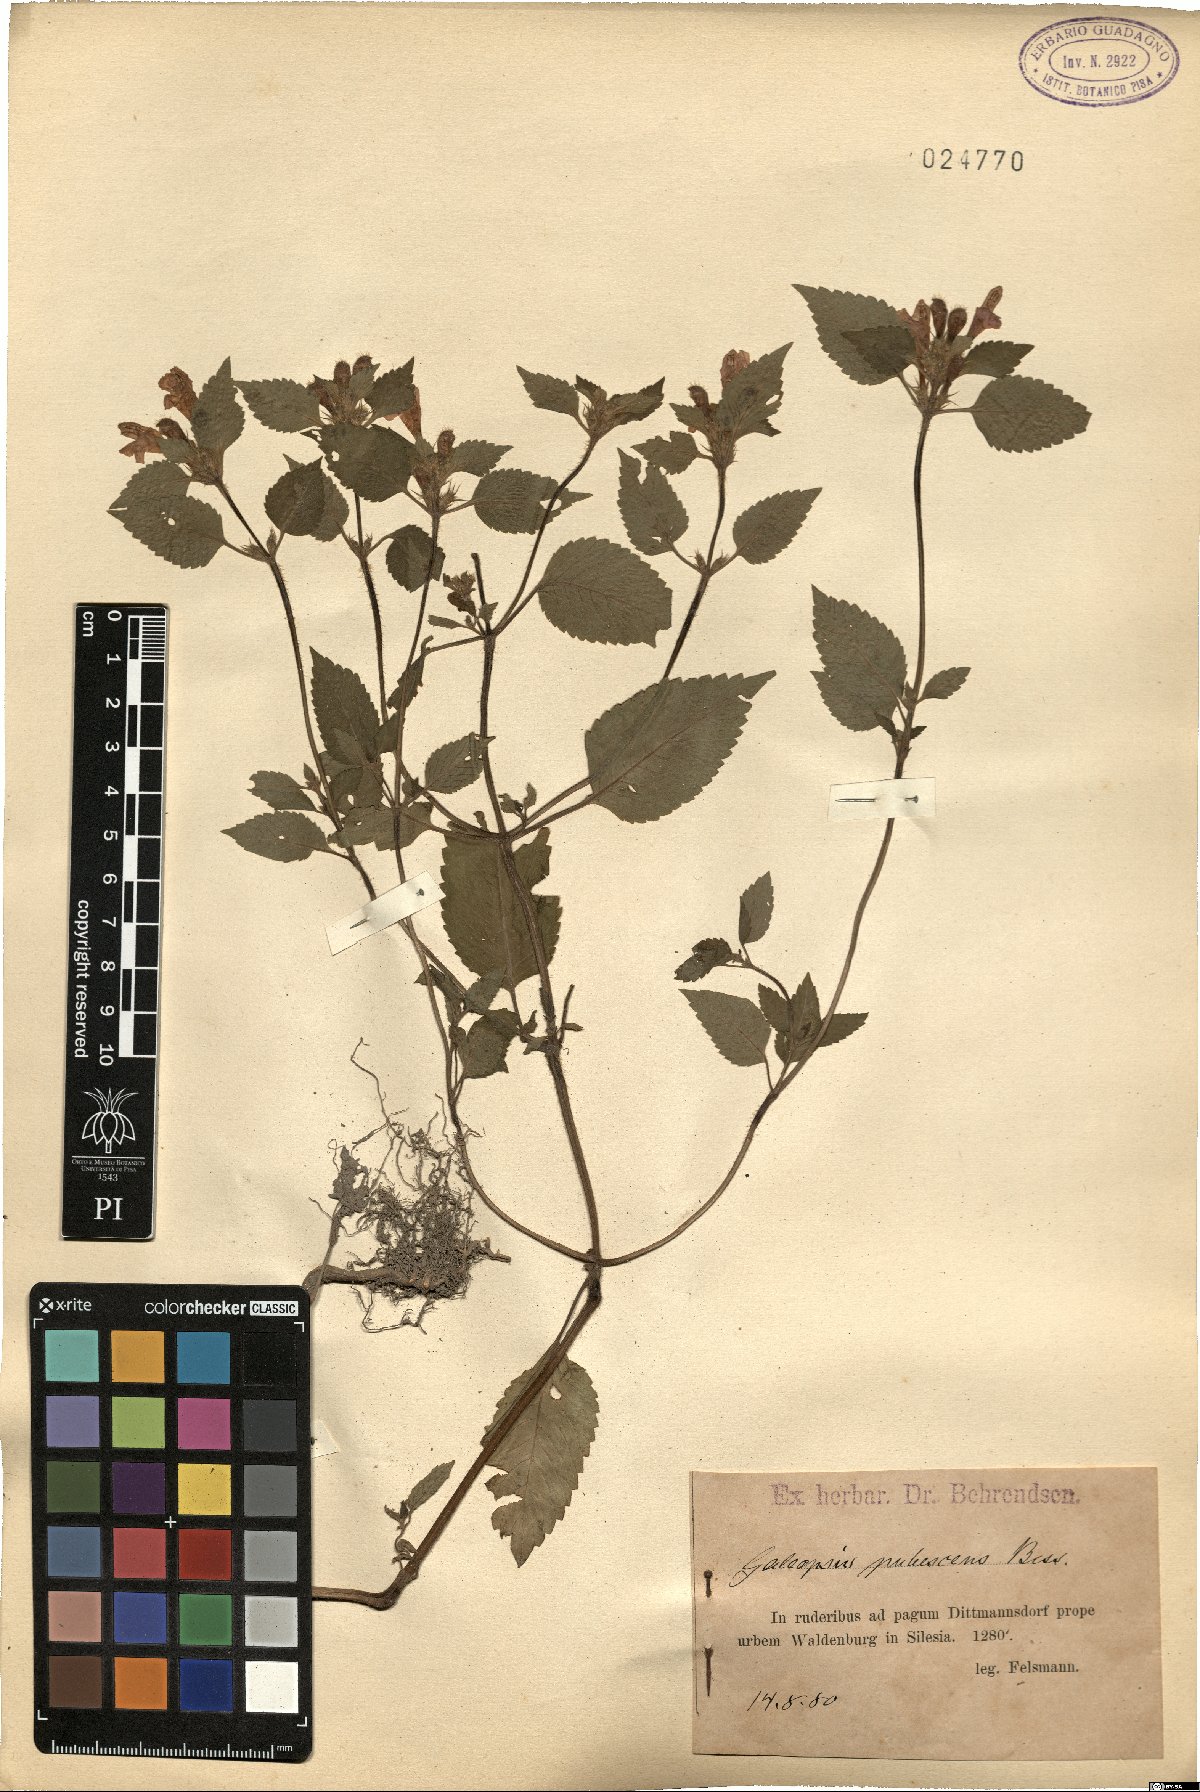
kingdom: Plantae
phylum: Tracheophyta
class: Magnoliopsida
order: Lamiales
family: Lamiaceae
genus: Galeopsis
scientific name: Galeopsis pubescens
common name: Downy hemp-nettle
